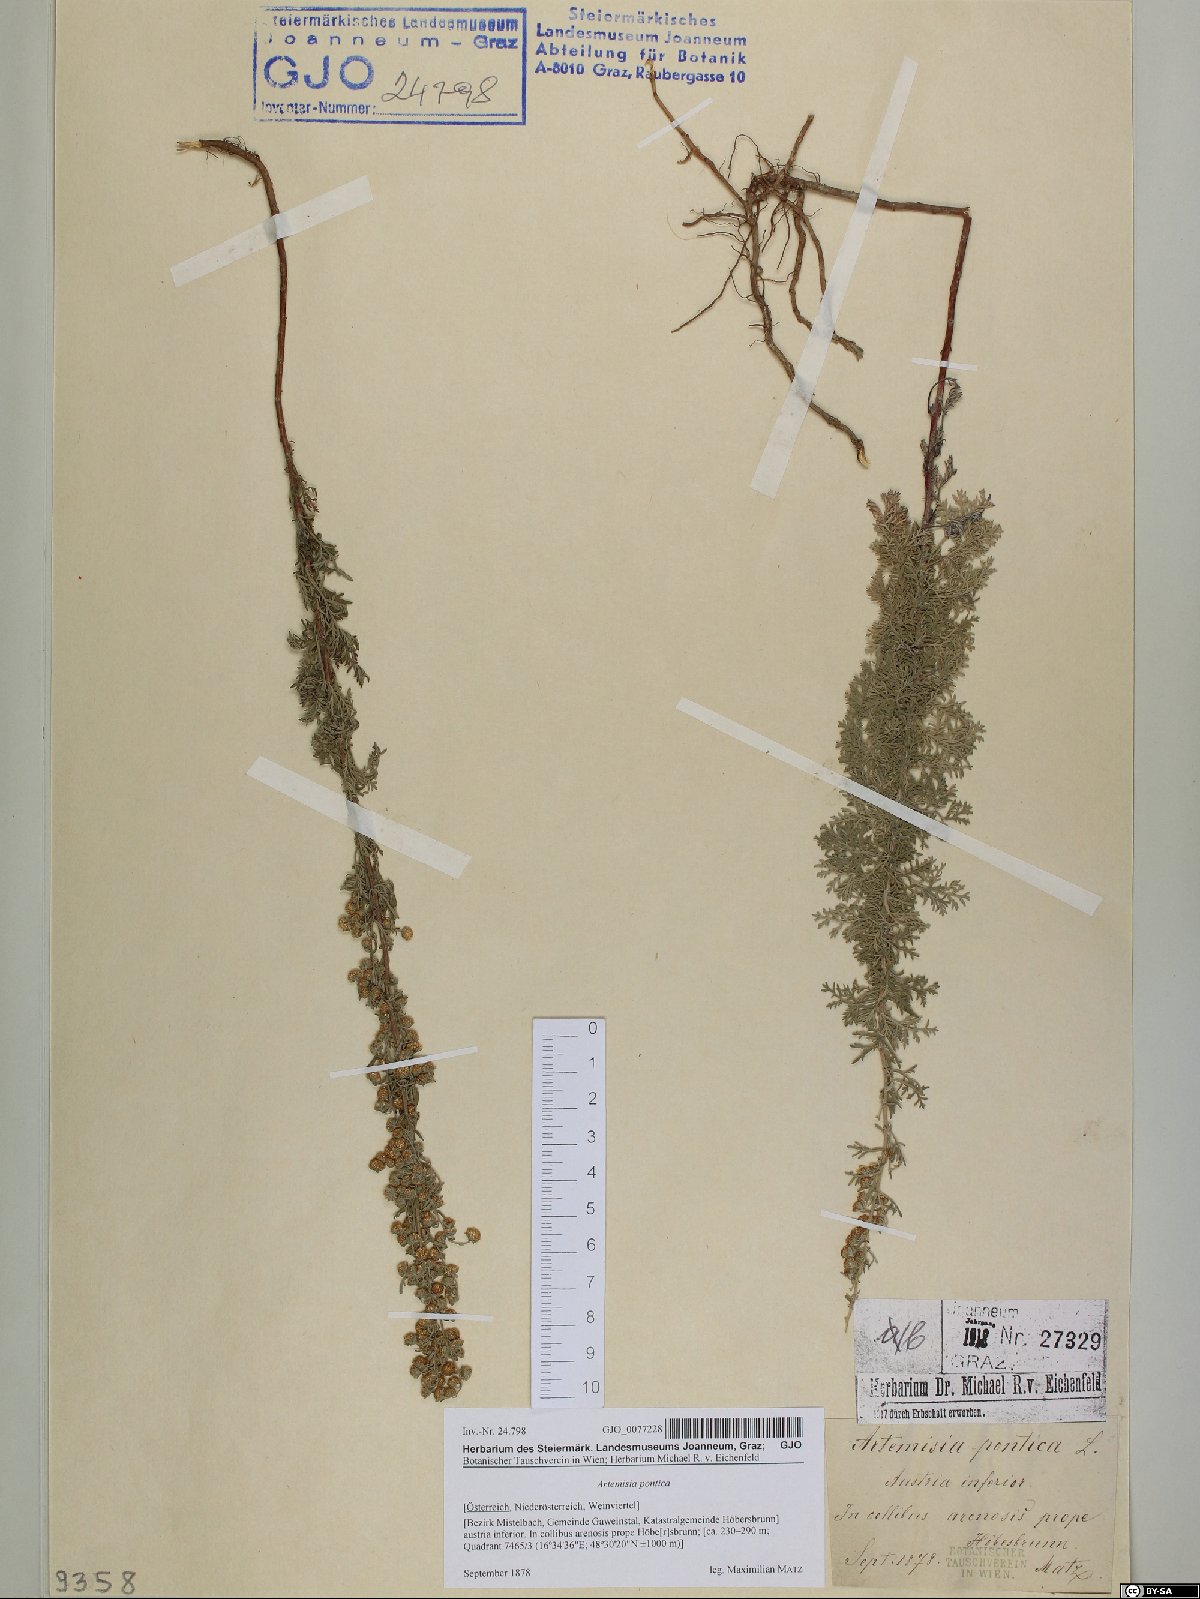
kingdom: Plantae
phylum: Tracheophyta
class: Magnoliopsida
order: Asterales
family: Asteraceae
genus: Artemisia
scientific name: Artemisia pontica
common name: Roman wormwood
